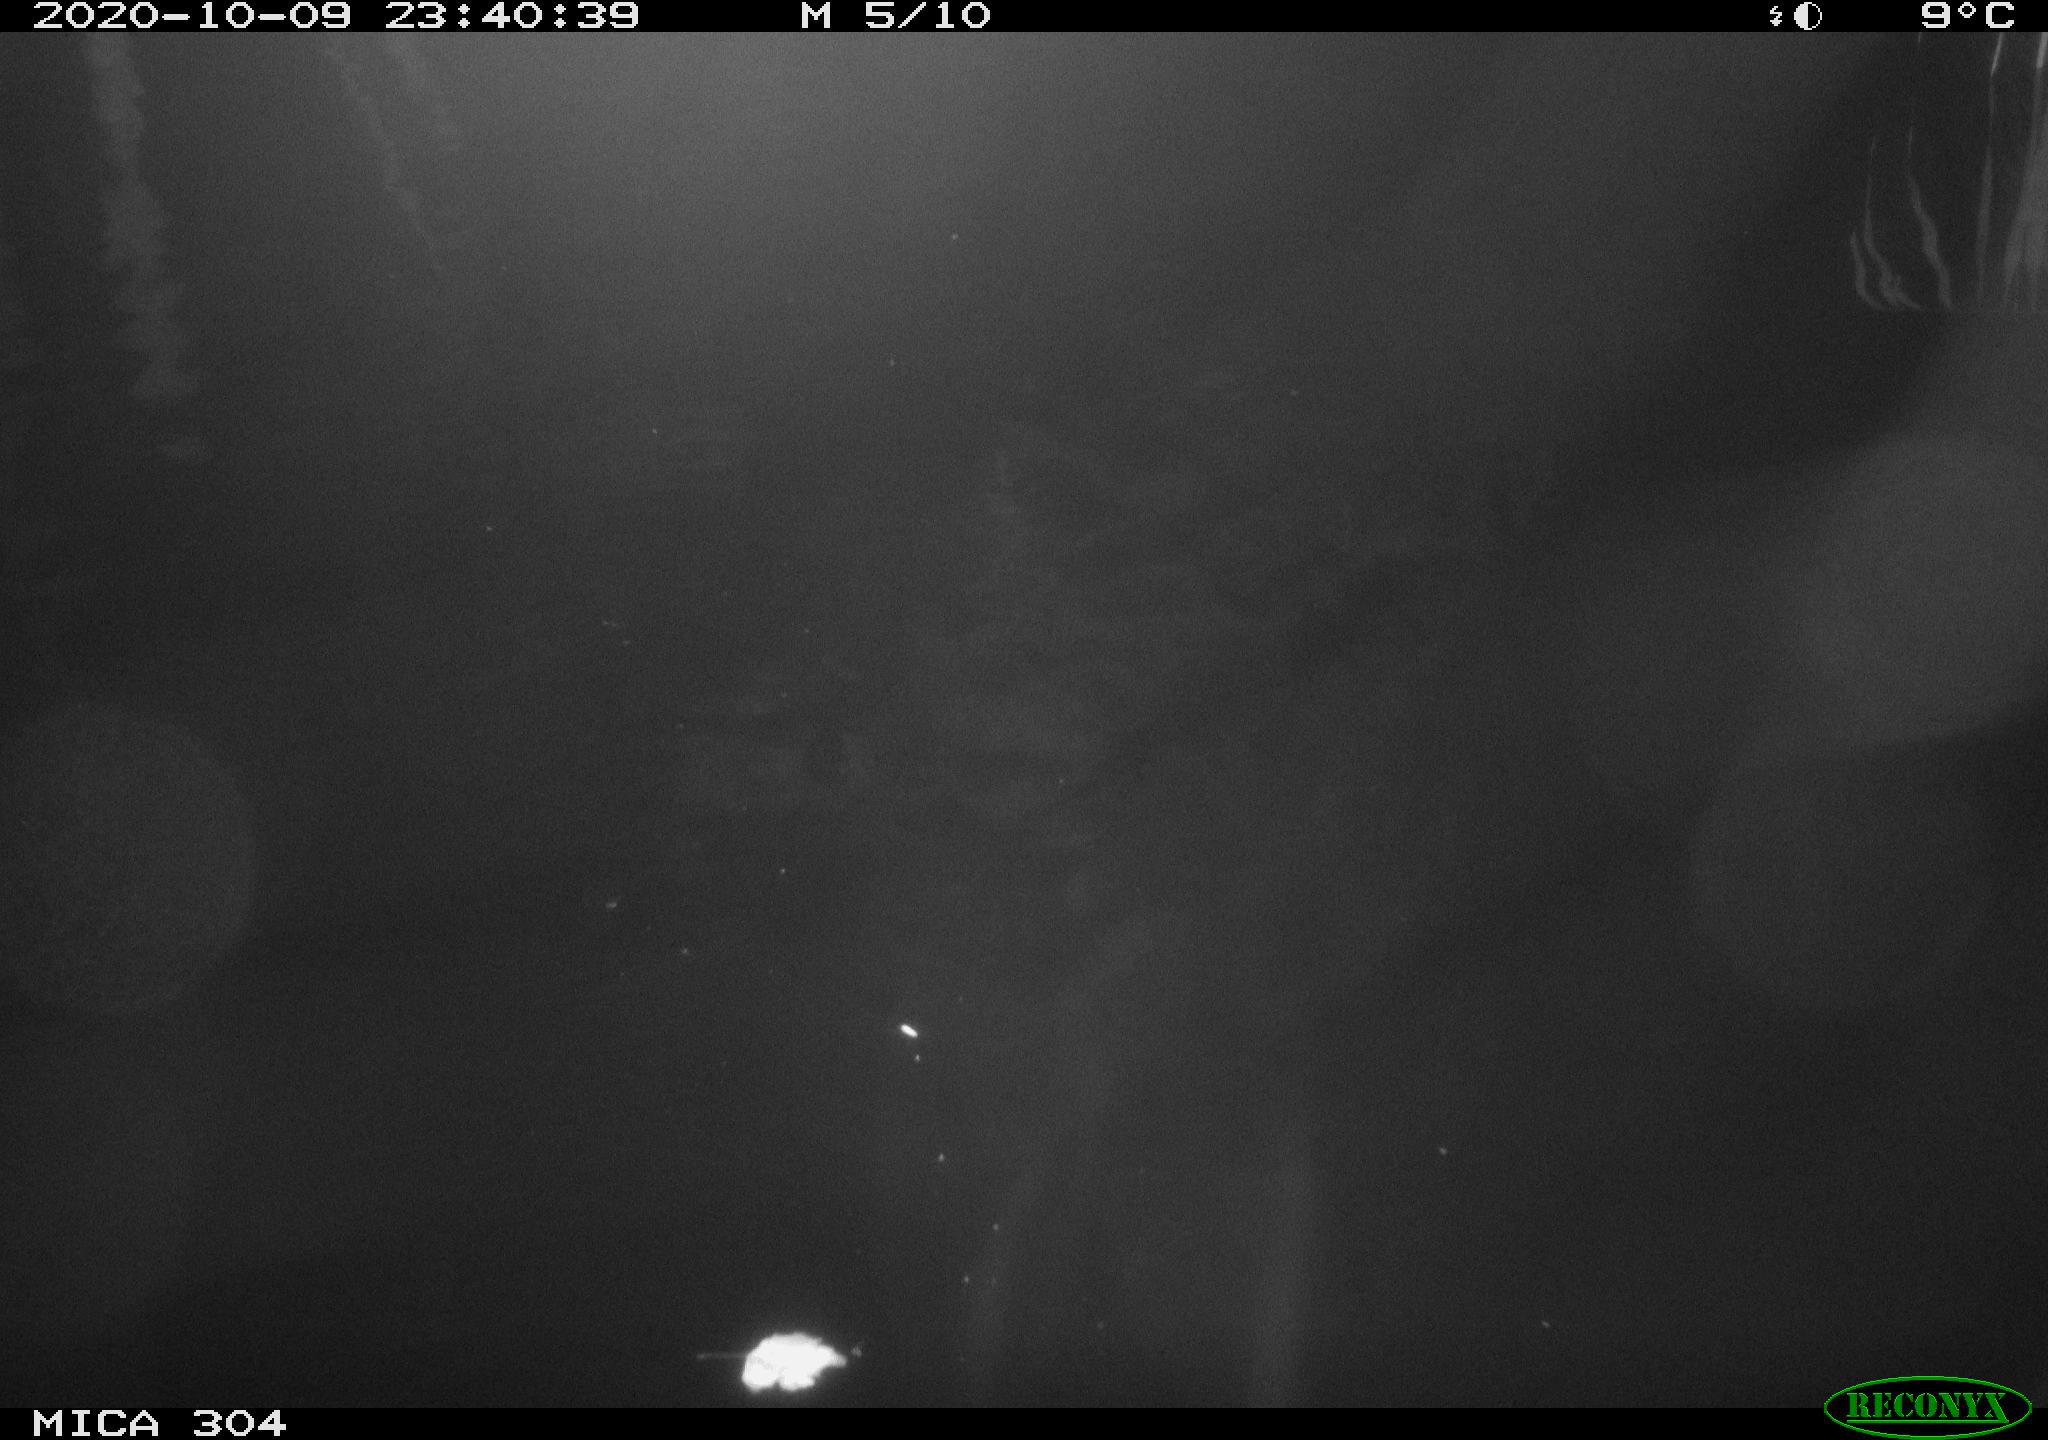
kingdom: Animalia
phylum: Chordata
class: Mammalia
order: Rodentia
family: Cricetidae
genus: Ondatra
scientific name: Ondatra zibethicus
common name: Muskrat
